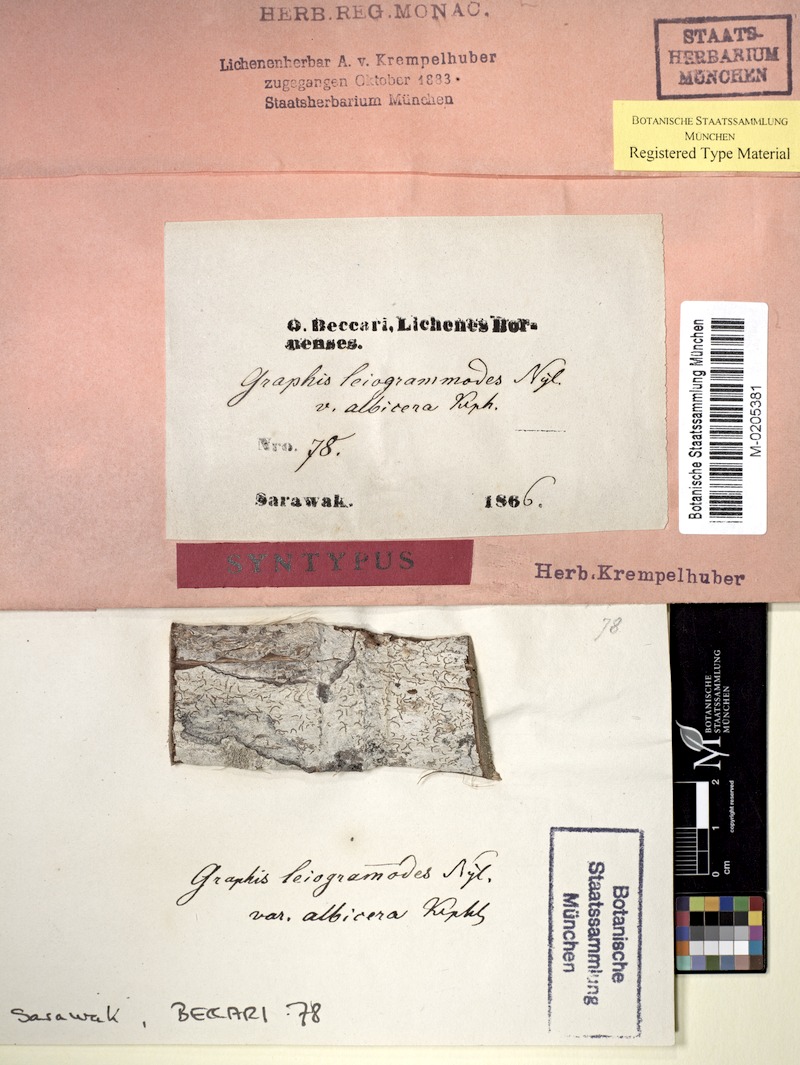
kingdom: Fungi
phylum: Ascomycota
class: Lecanoromycetes
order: Ostropales
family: Graphidaceae
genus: Phaeographis
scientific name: Phaeographis leiogrammodes
